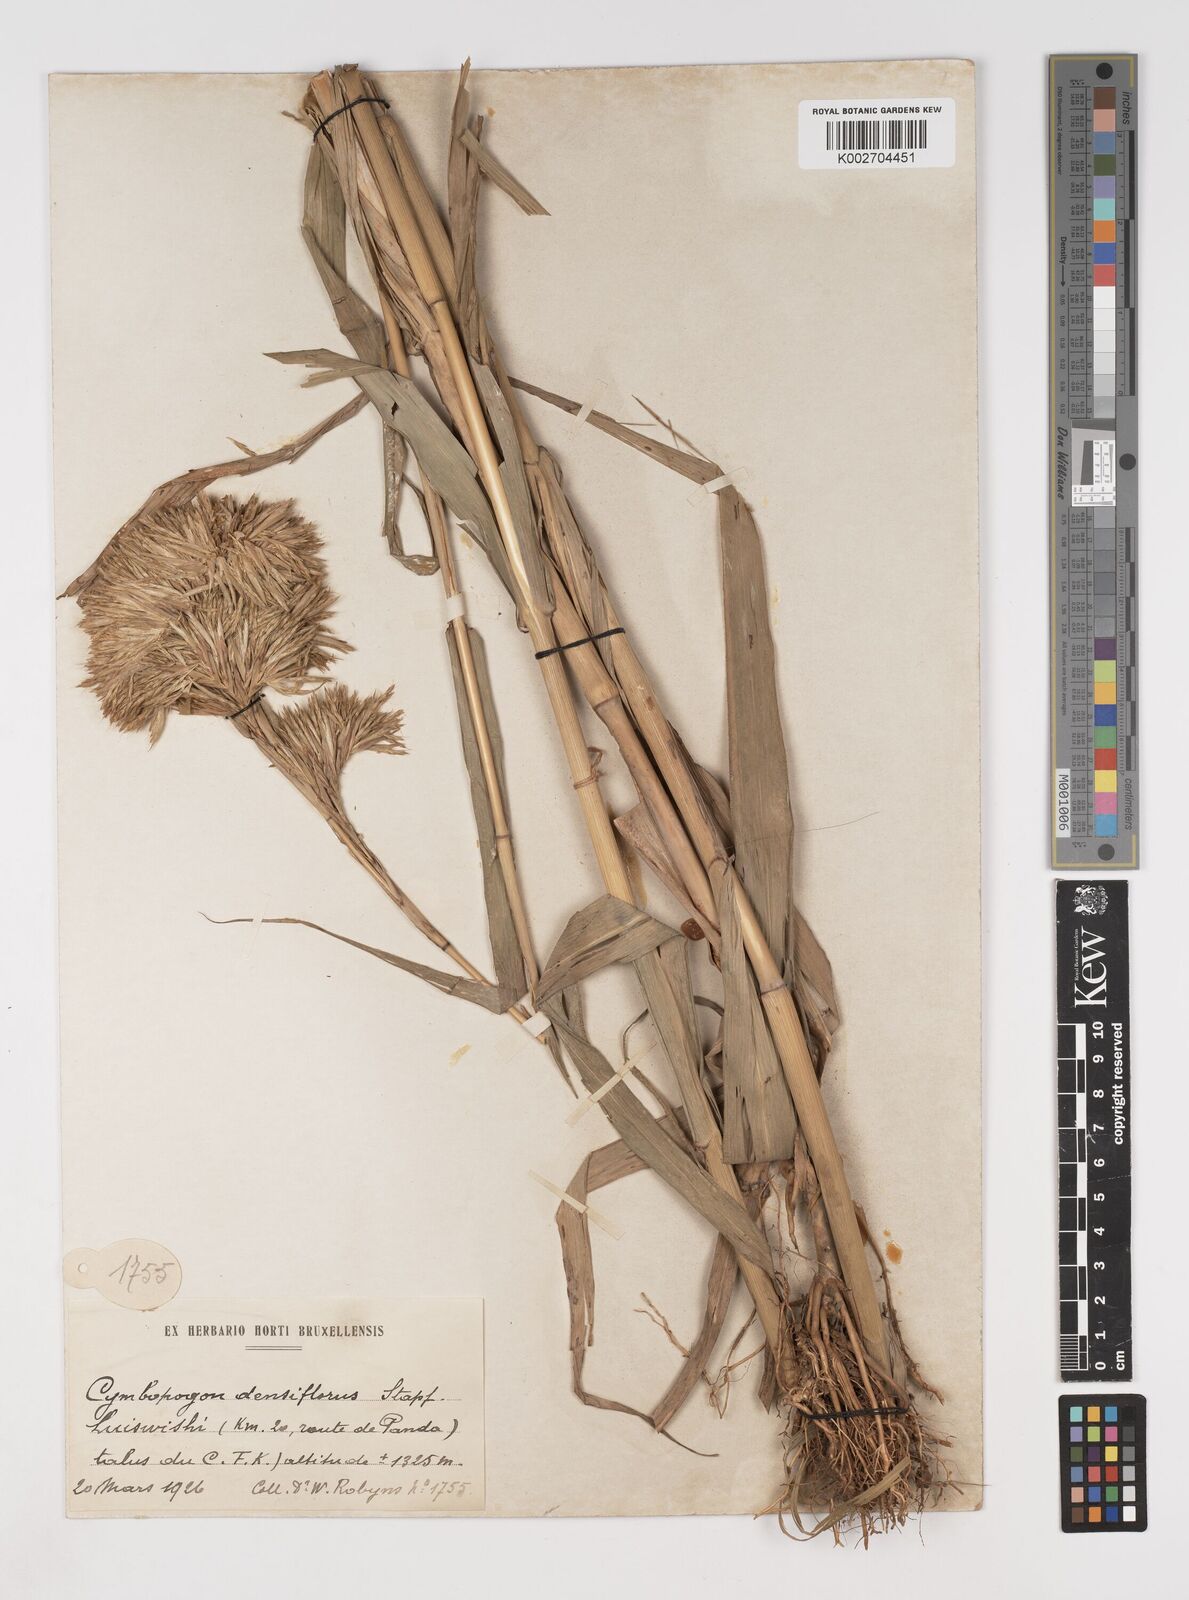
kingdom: Plantae
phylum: Tracheophyta
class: Liliopsida
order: Poales
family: Poaceae
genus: Cymbopogon
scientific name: Cymbopogon densiflorus
